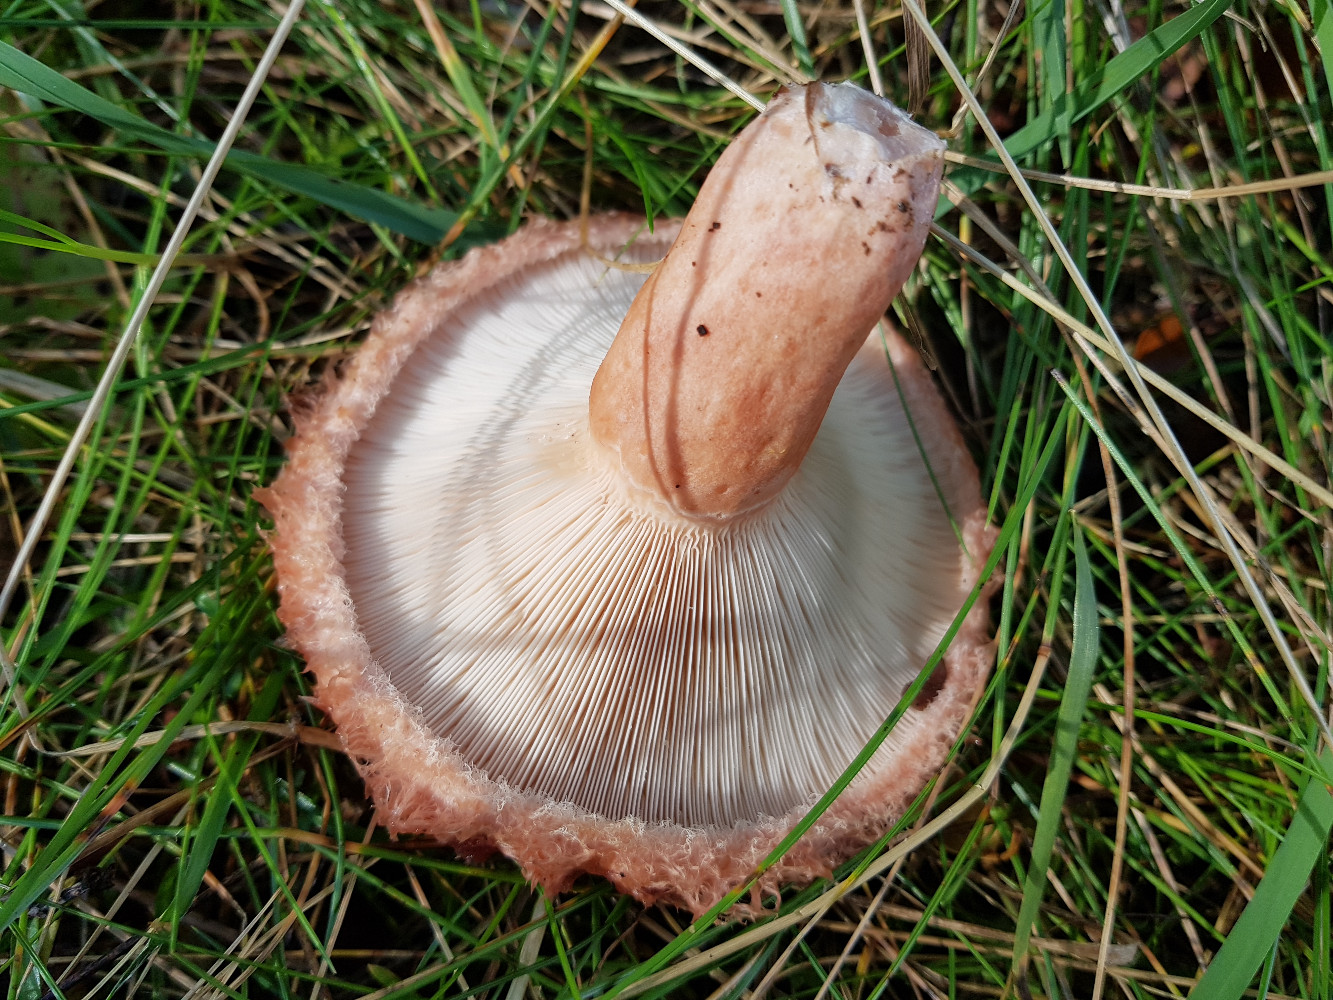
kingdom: Fungi
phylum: Basidiomycota
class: Agaricomycetes
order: Russulales
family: Russulaceae
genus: Lactarius
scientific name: Lactarius torminosus
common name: skægget mælkehat
